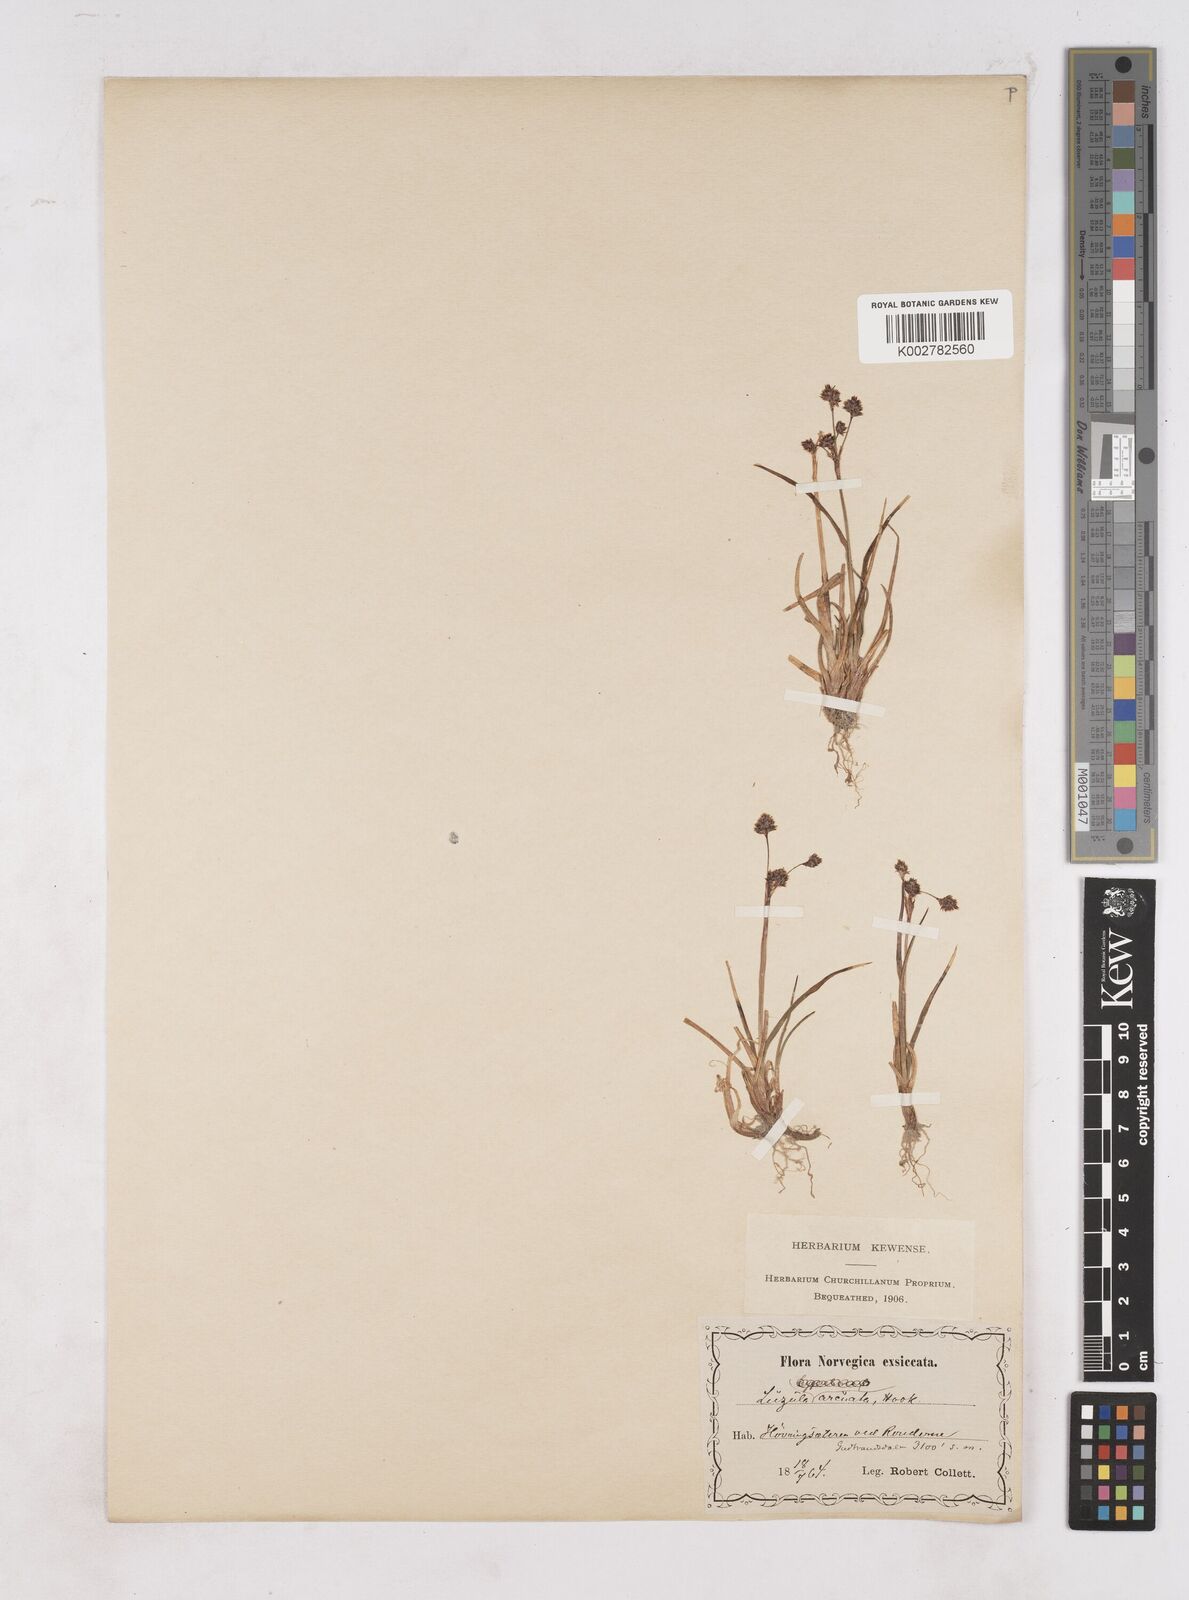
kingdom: Plantae
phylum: Tracheophyta
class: Liliopsida
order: Poales
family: Juncaceae
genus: Luzula
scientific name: Luzula confusa
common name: Northern wood rush
